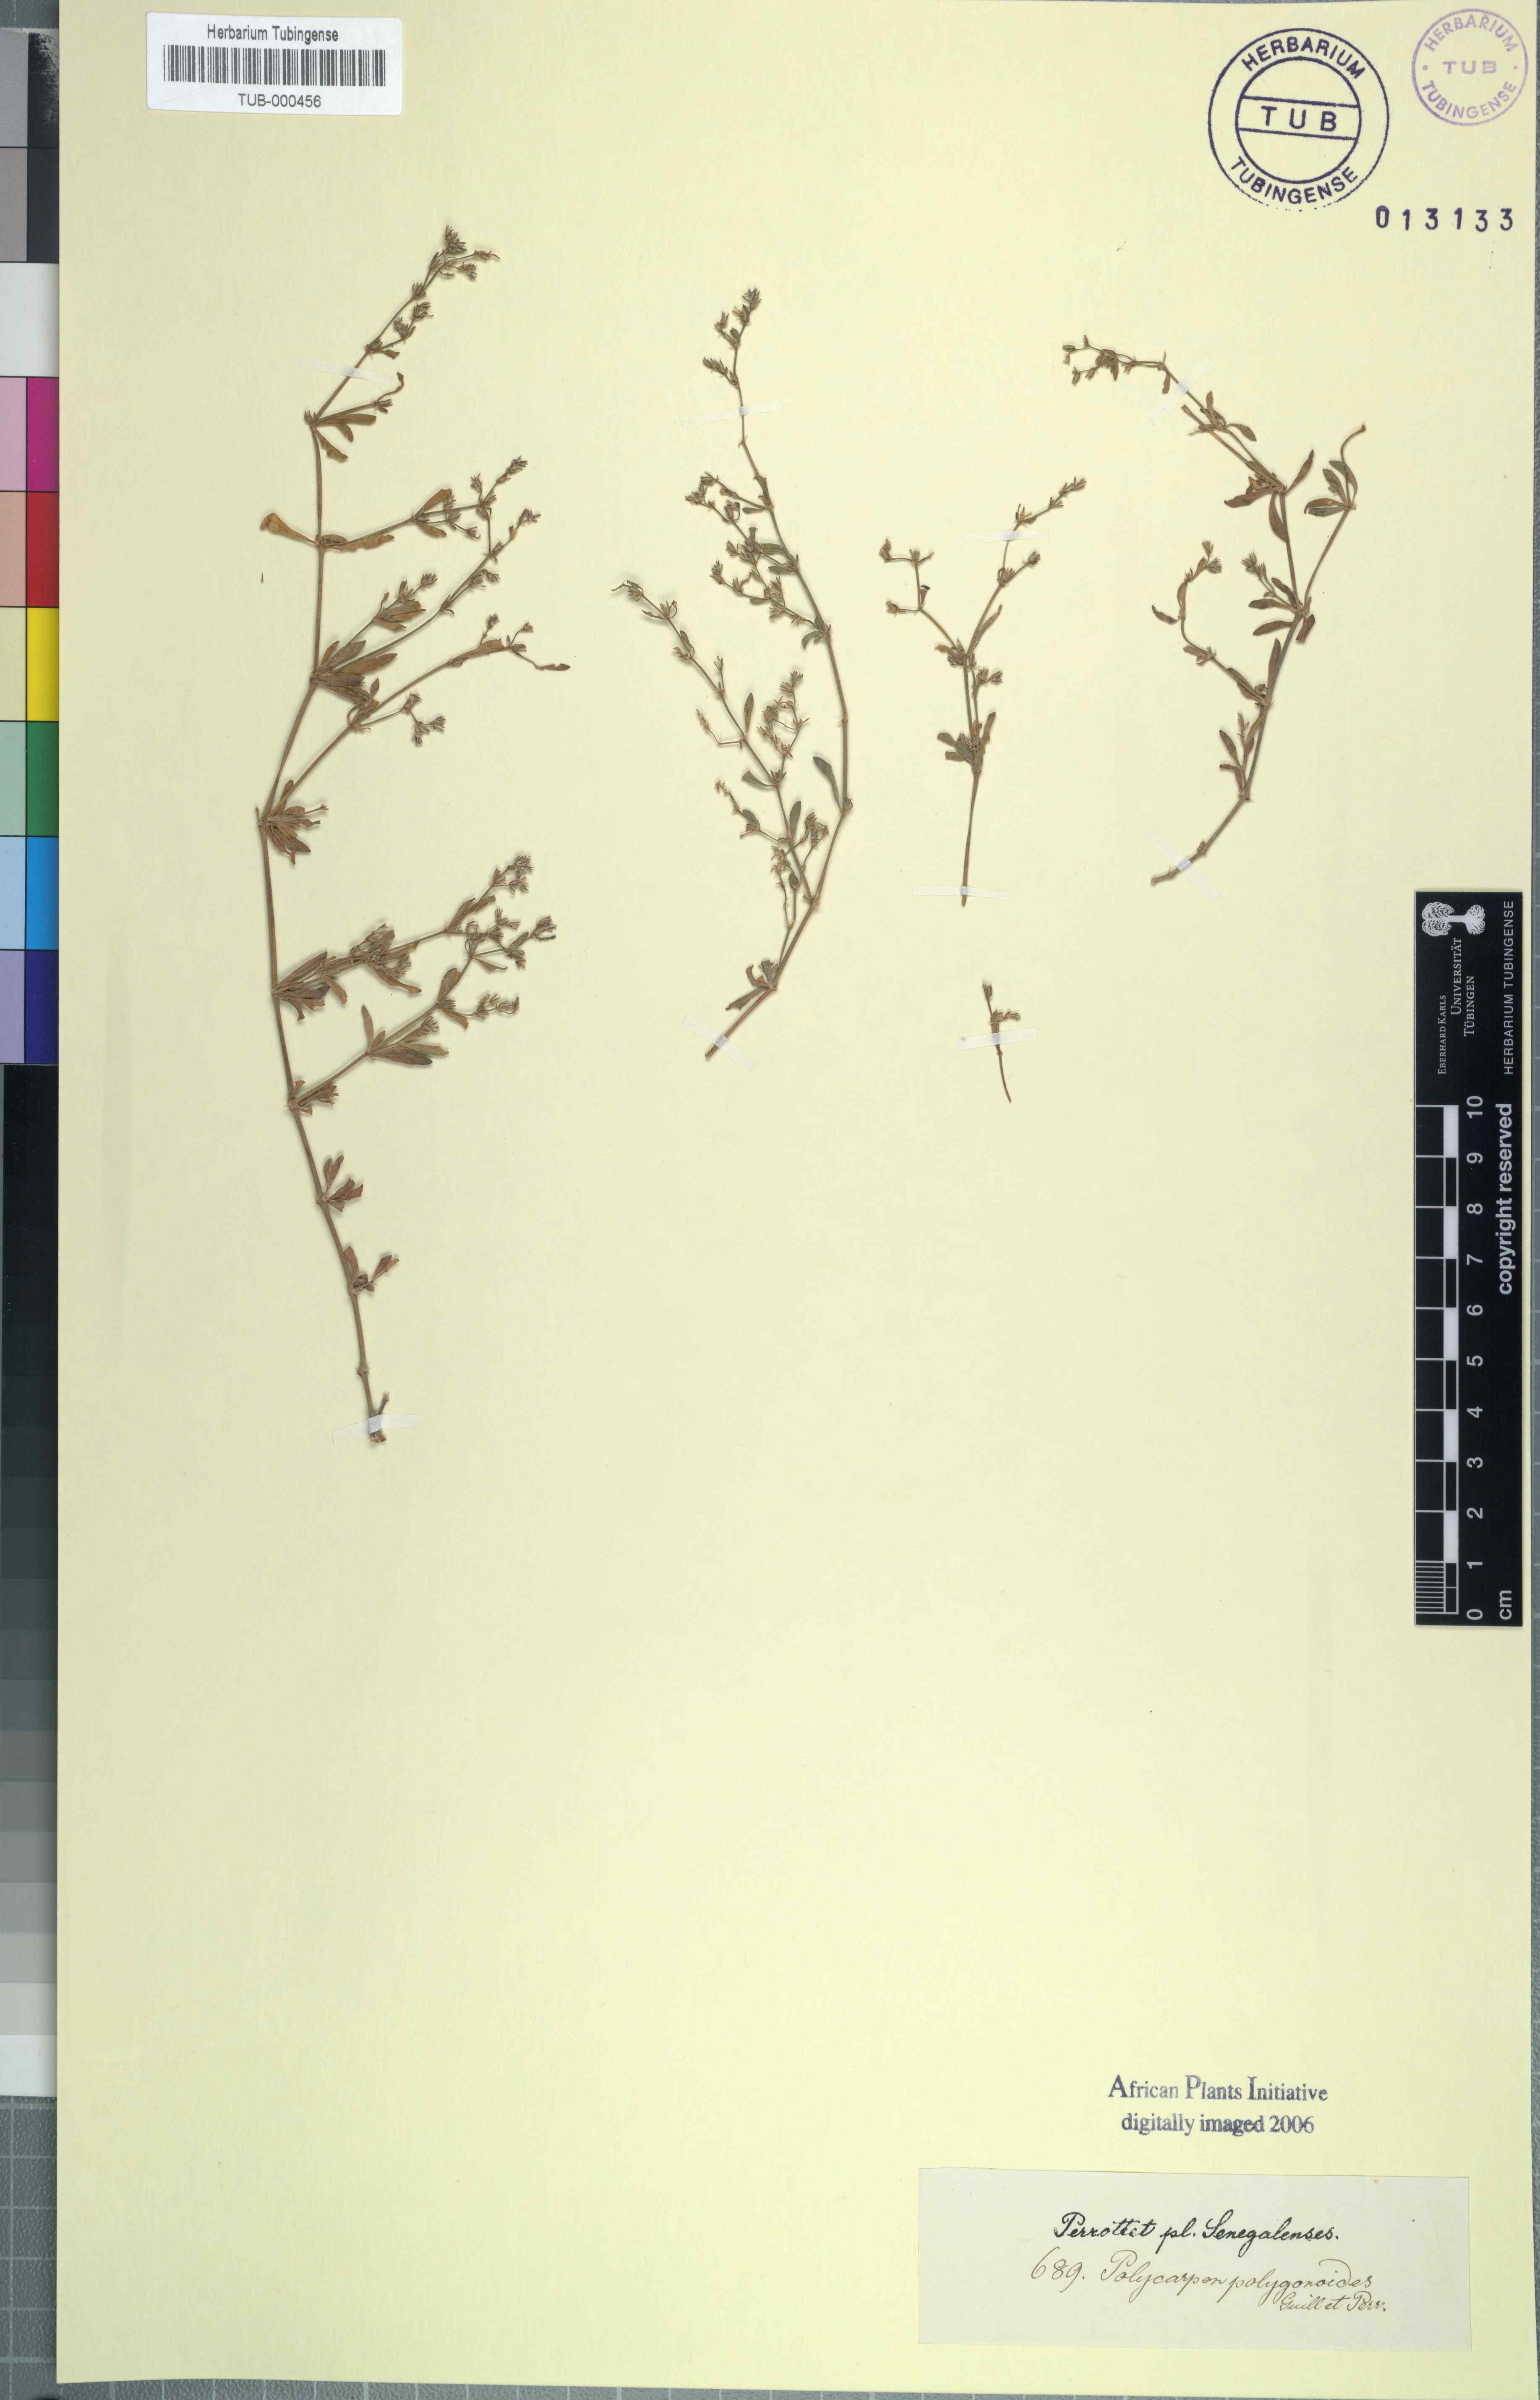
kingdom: Plantae
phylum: Tracheophyta
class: Magnoliopsida
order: Caryophyllales
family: Caryophyllaceae
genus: Polycarpon
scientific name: Polycarpon succulentum
